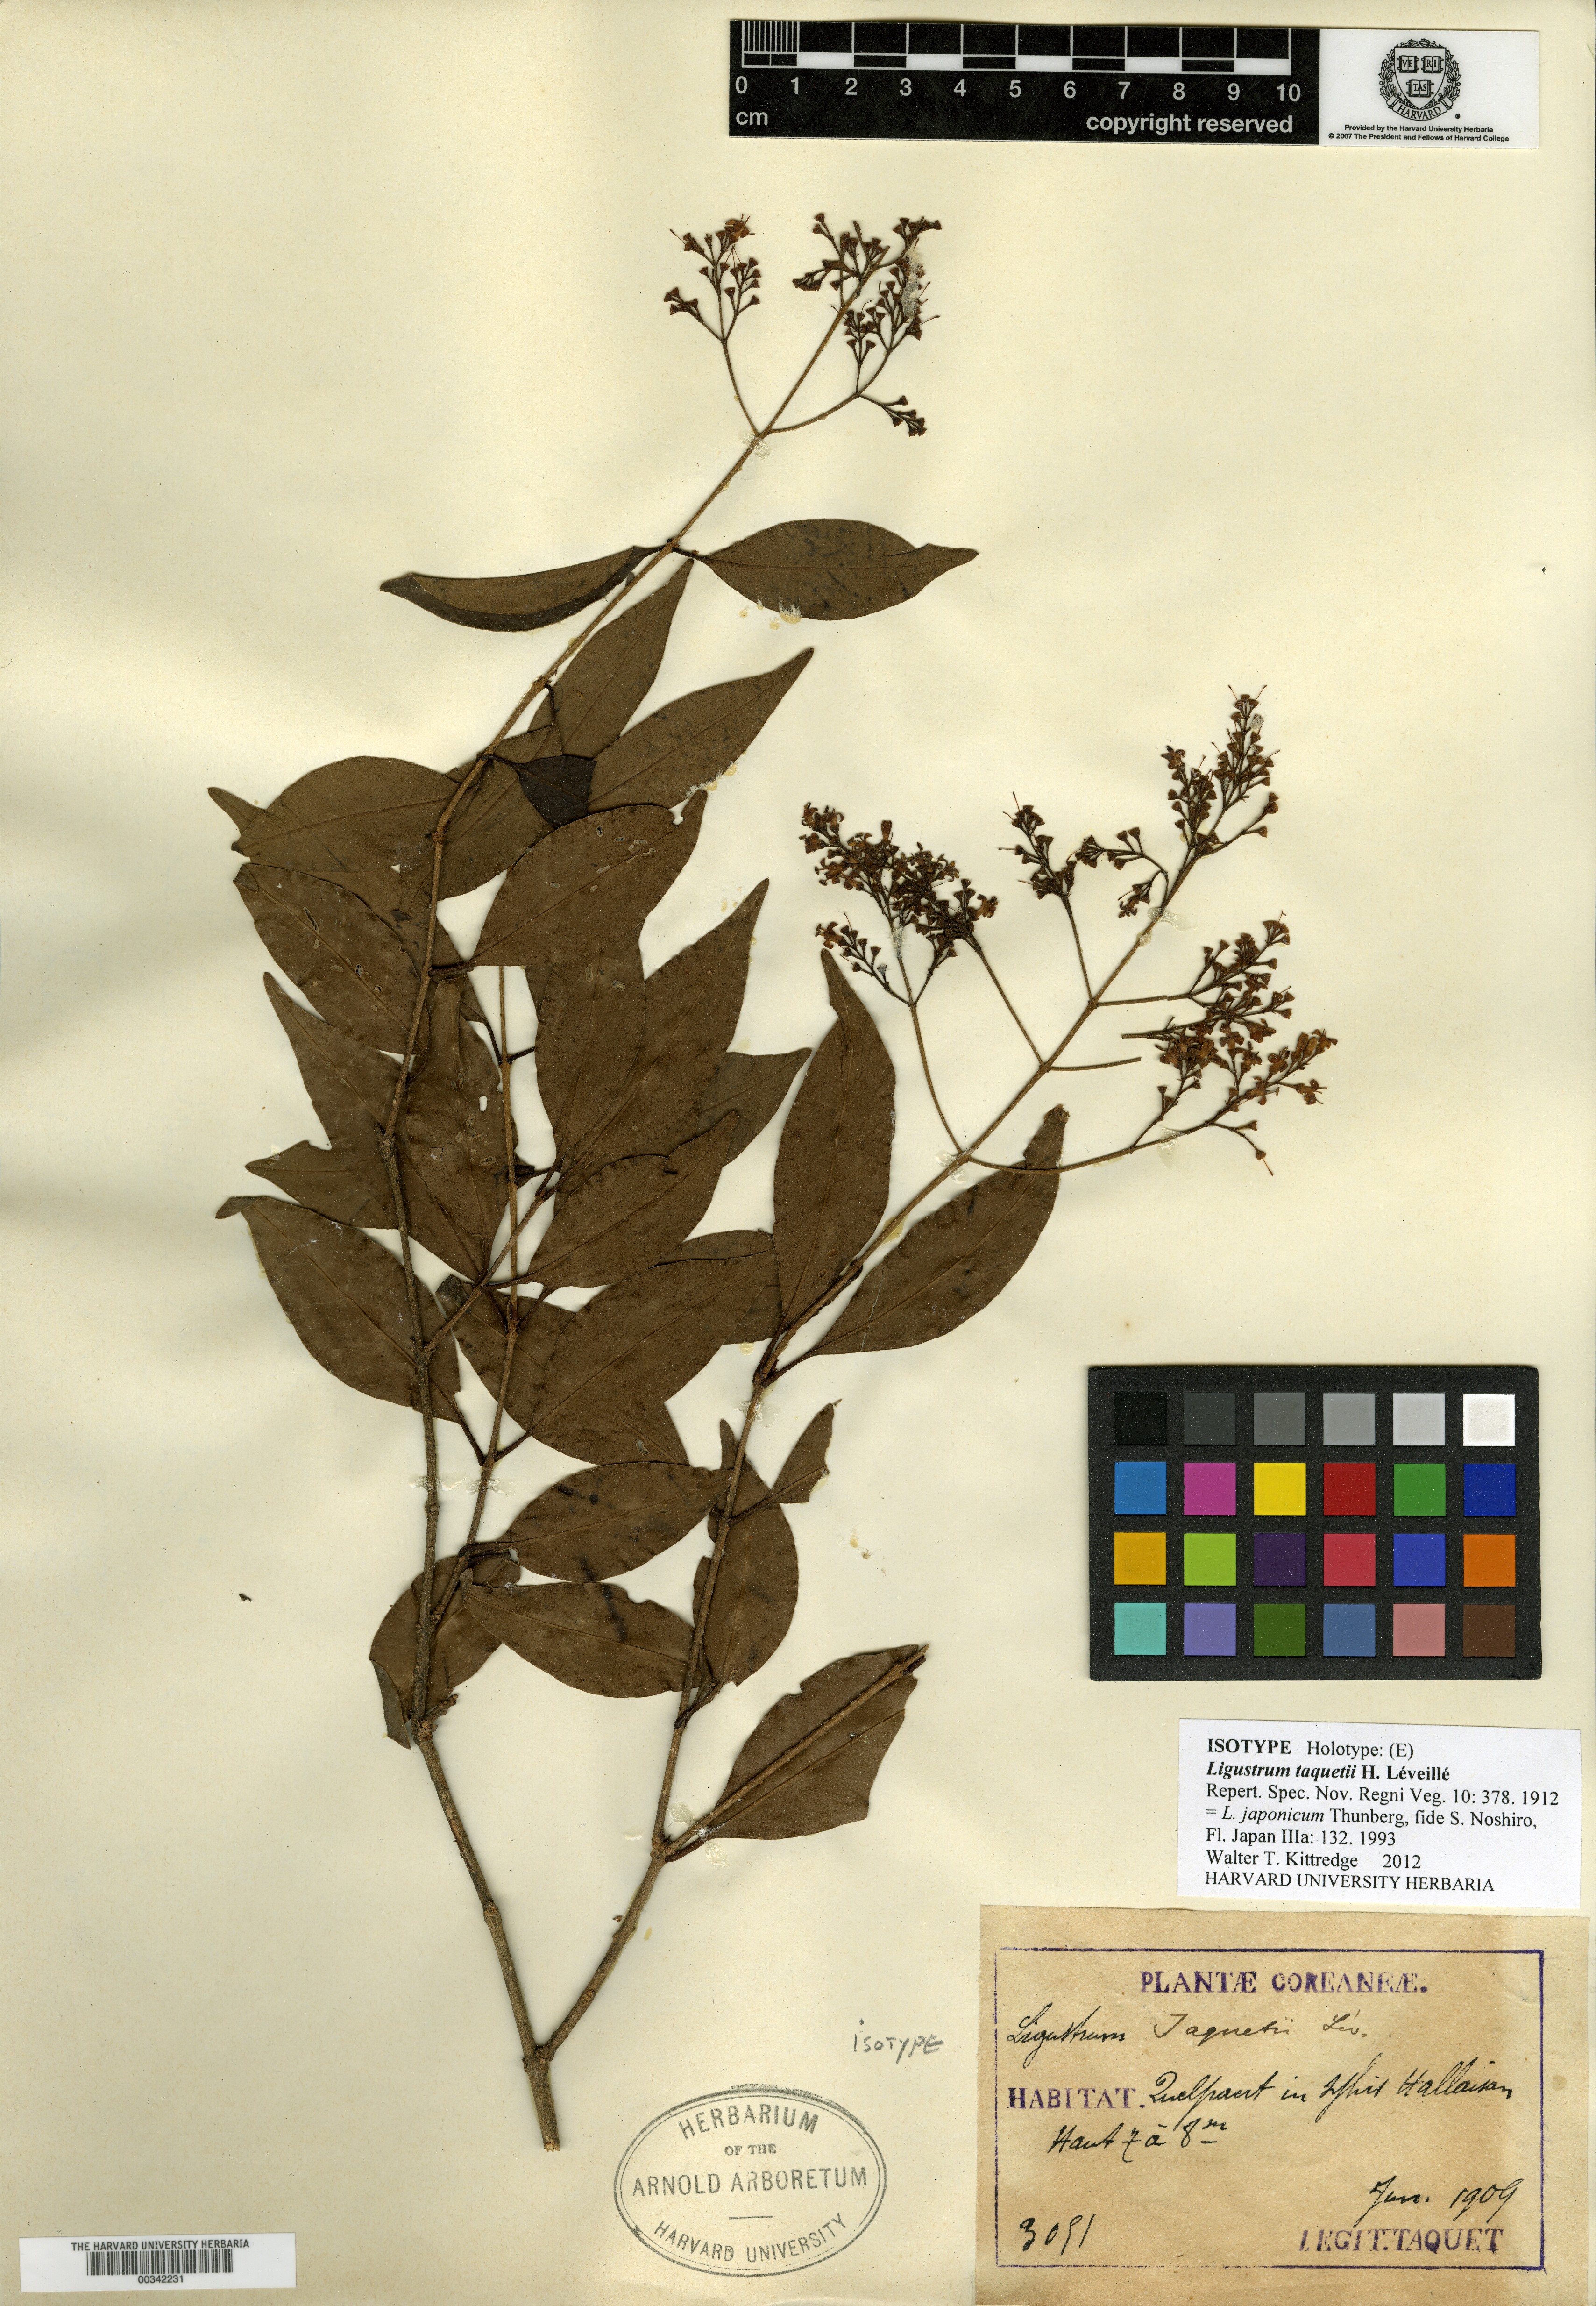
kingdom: Plantae
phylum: Tracheophyta
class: Magnoliopsida
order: Lamiales
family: Oleaceae
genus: Ligustrum
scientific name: Ligustrum japonicum
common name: Japanese privet
